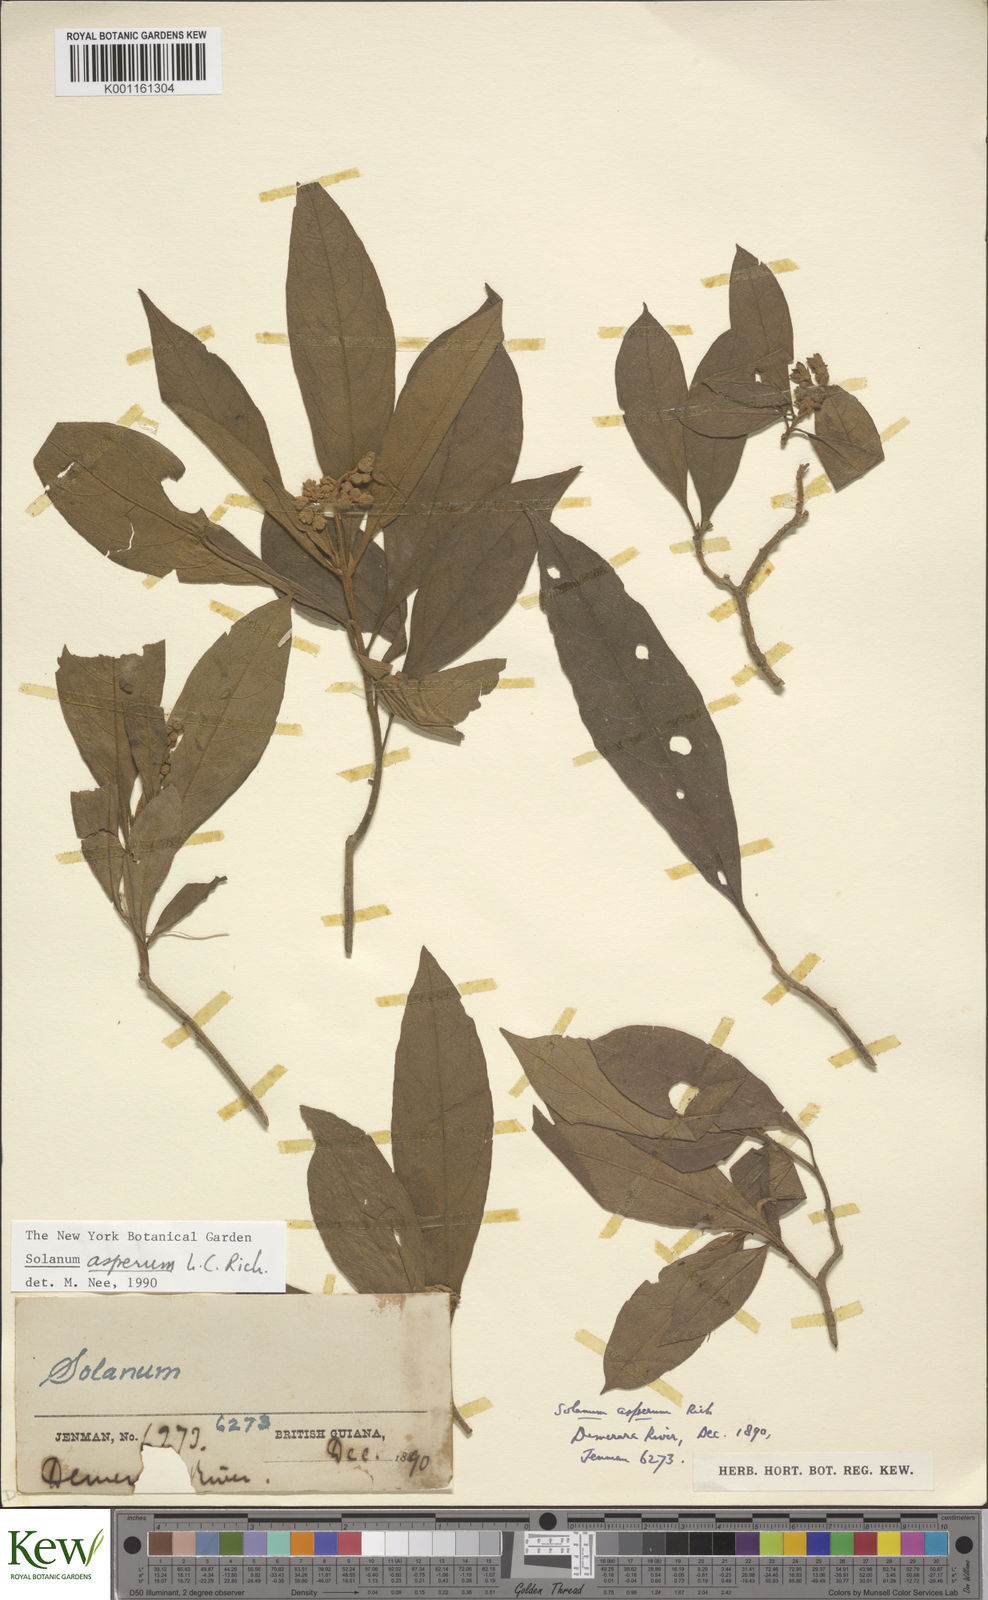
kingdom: Plantae
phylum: Tracheophyta
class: Magnoliopsida
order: Solanales
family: Solanaceae
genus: Solanum
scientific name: Solanum asperum
